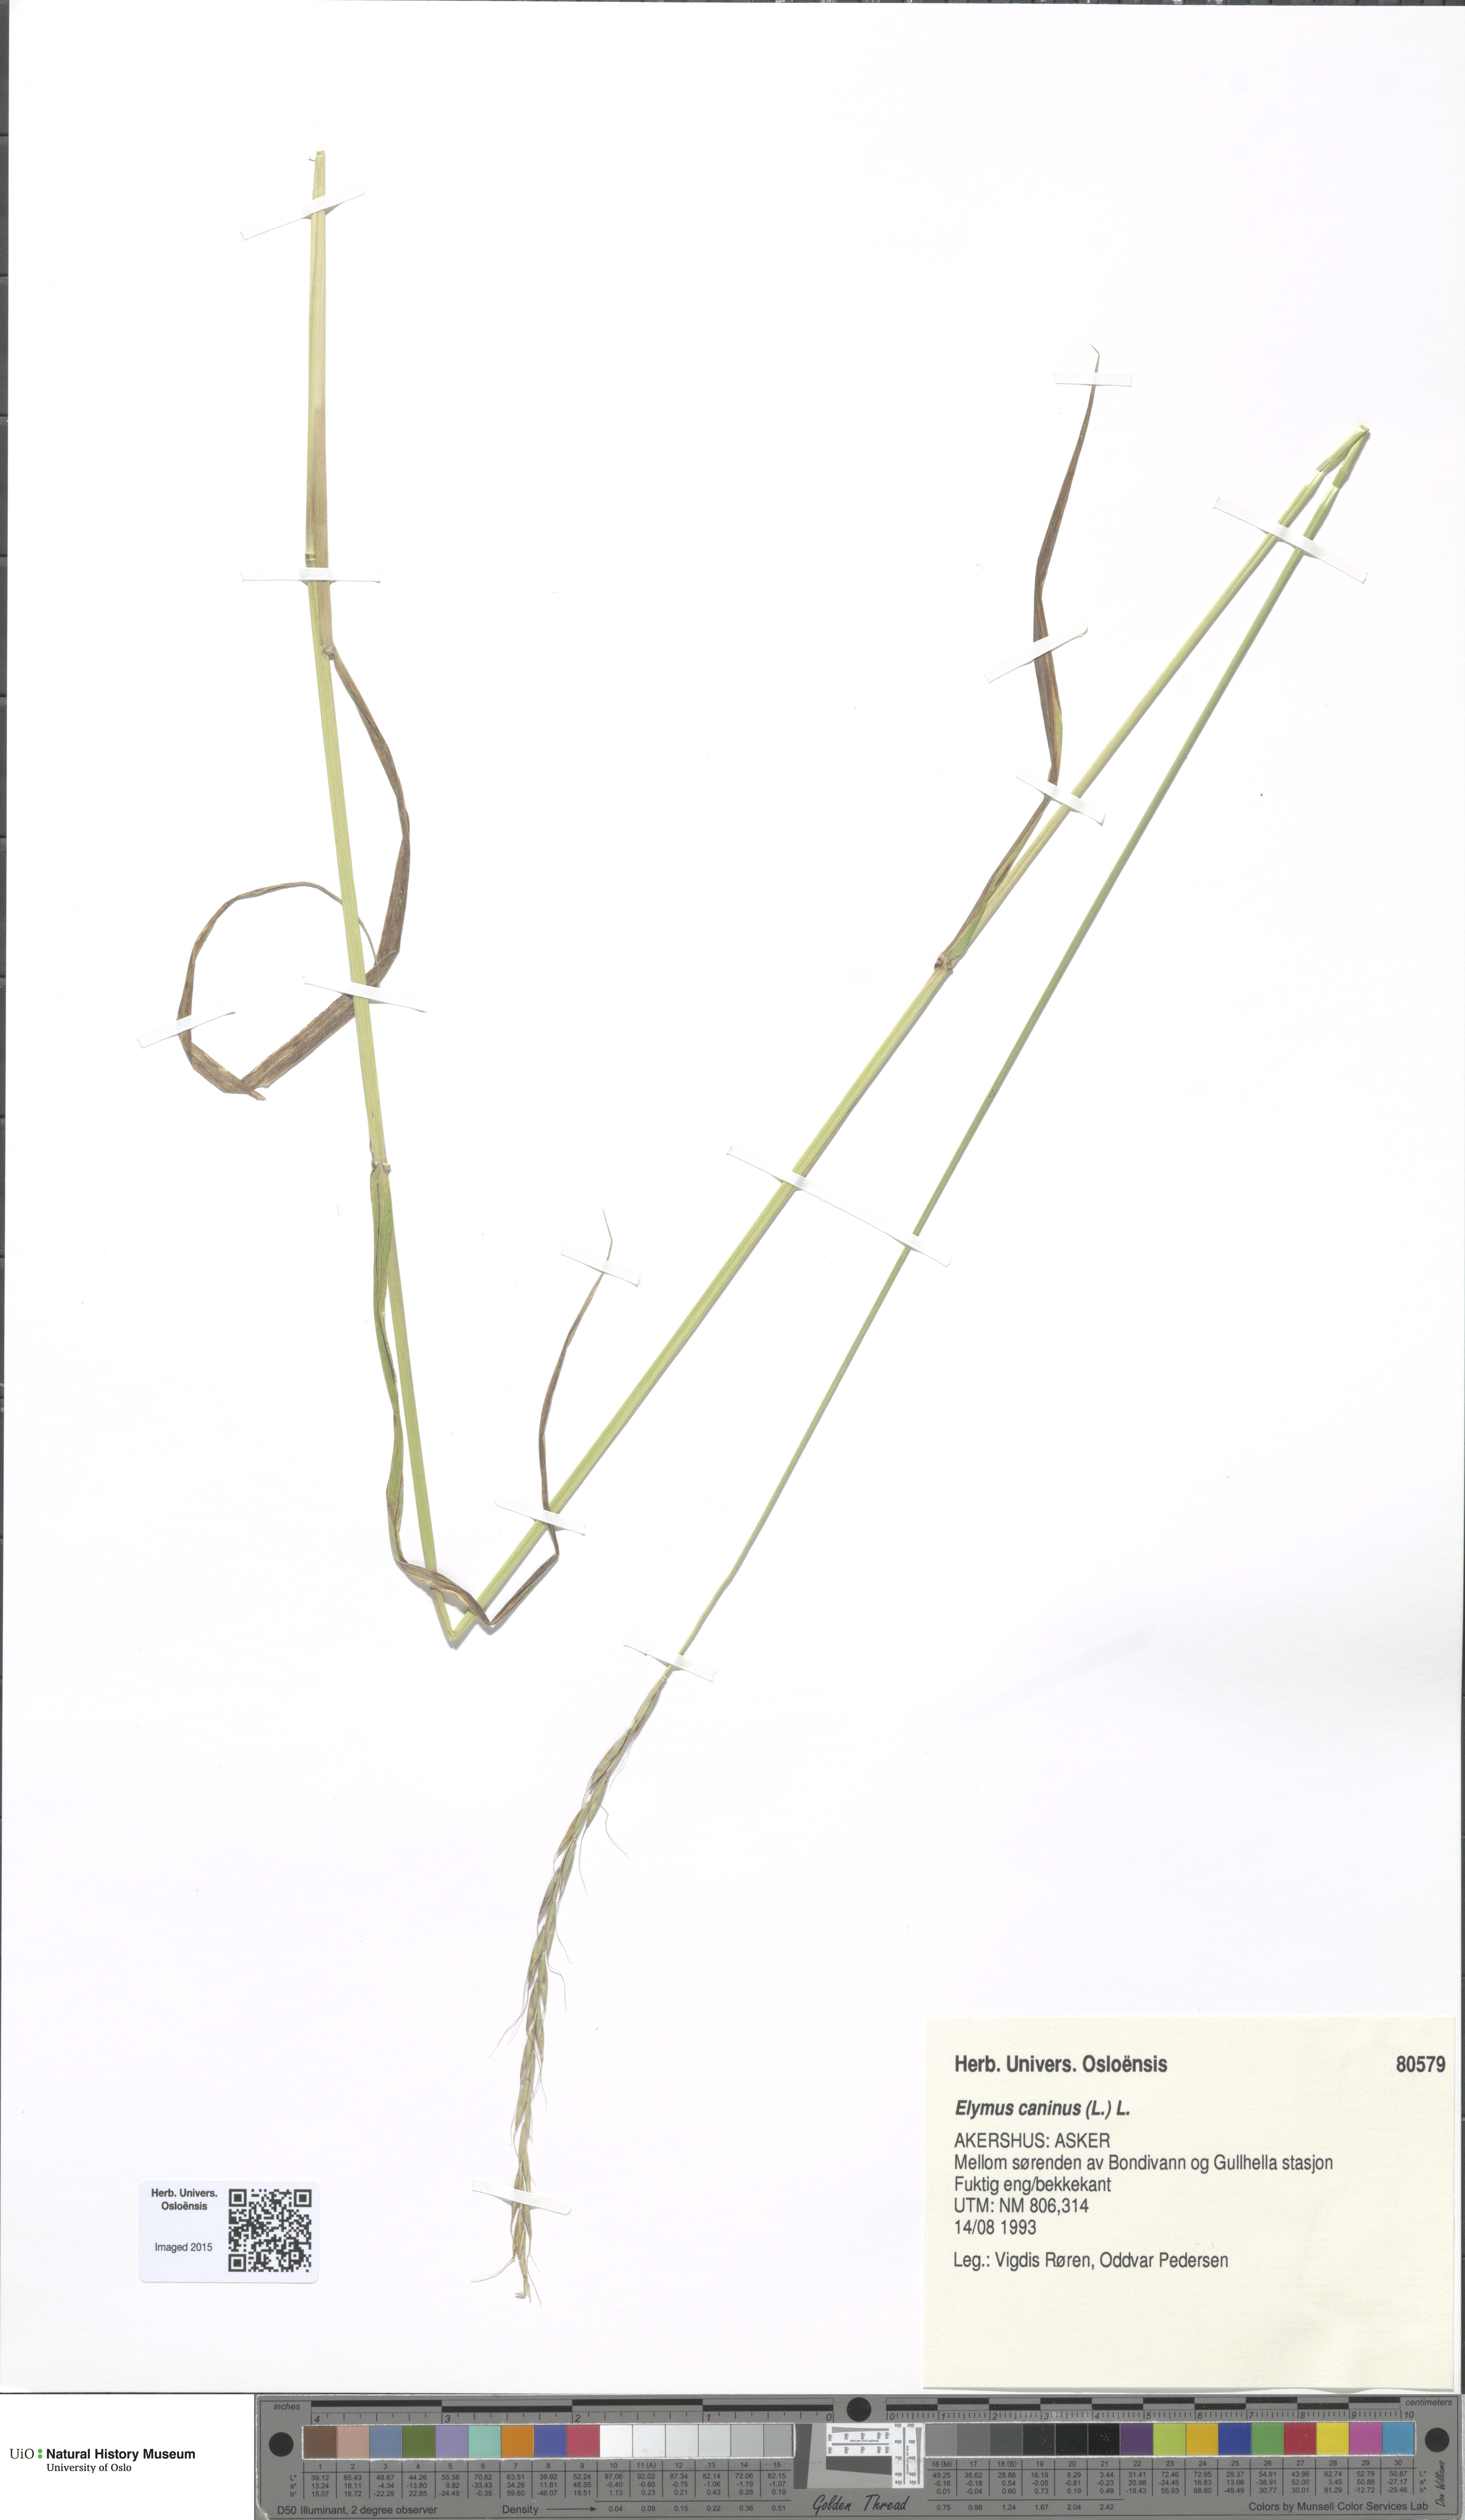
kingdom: Plantae
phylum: Tracheophyta
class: Liliopsida
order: Poales
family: Poaceae
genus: Elymus
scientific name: Elymus caninus
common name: Bearded couch
